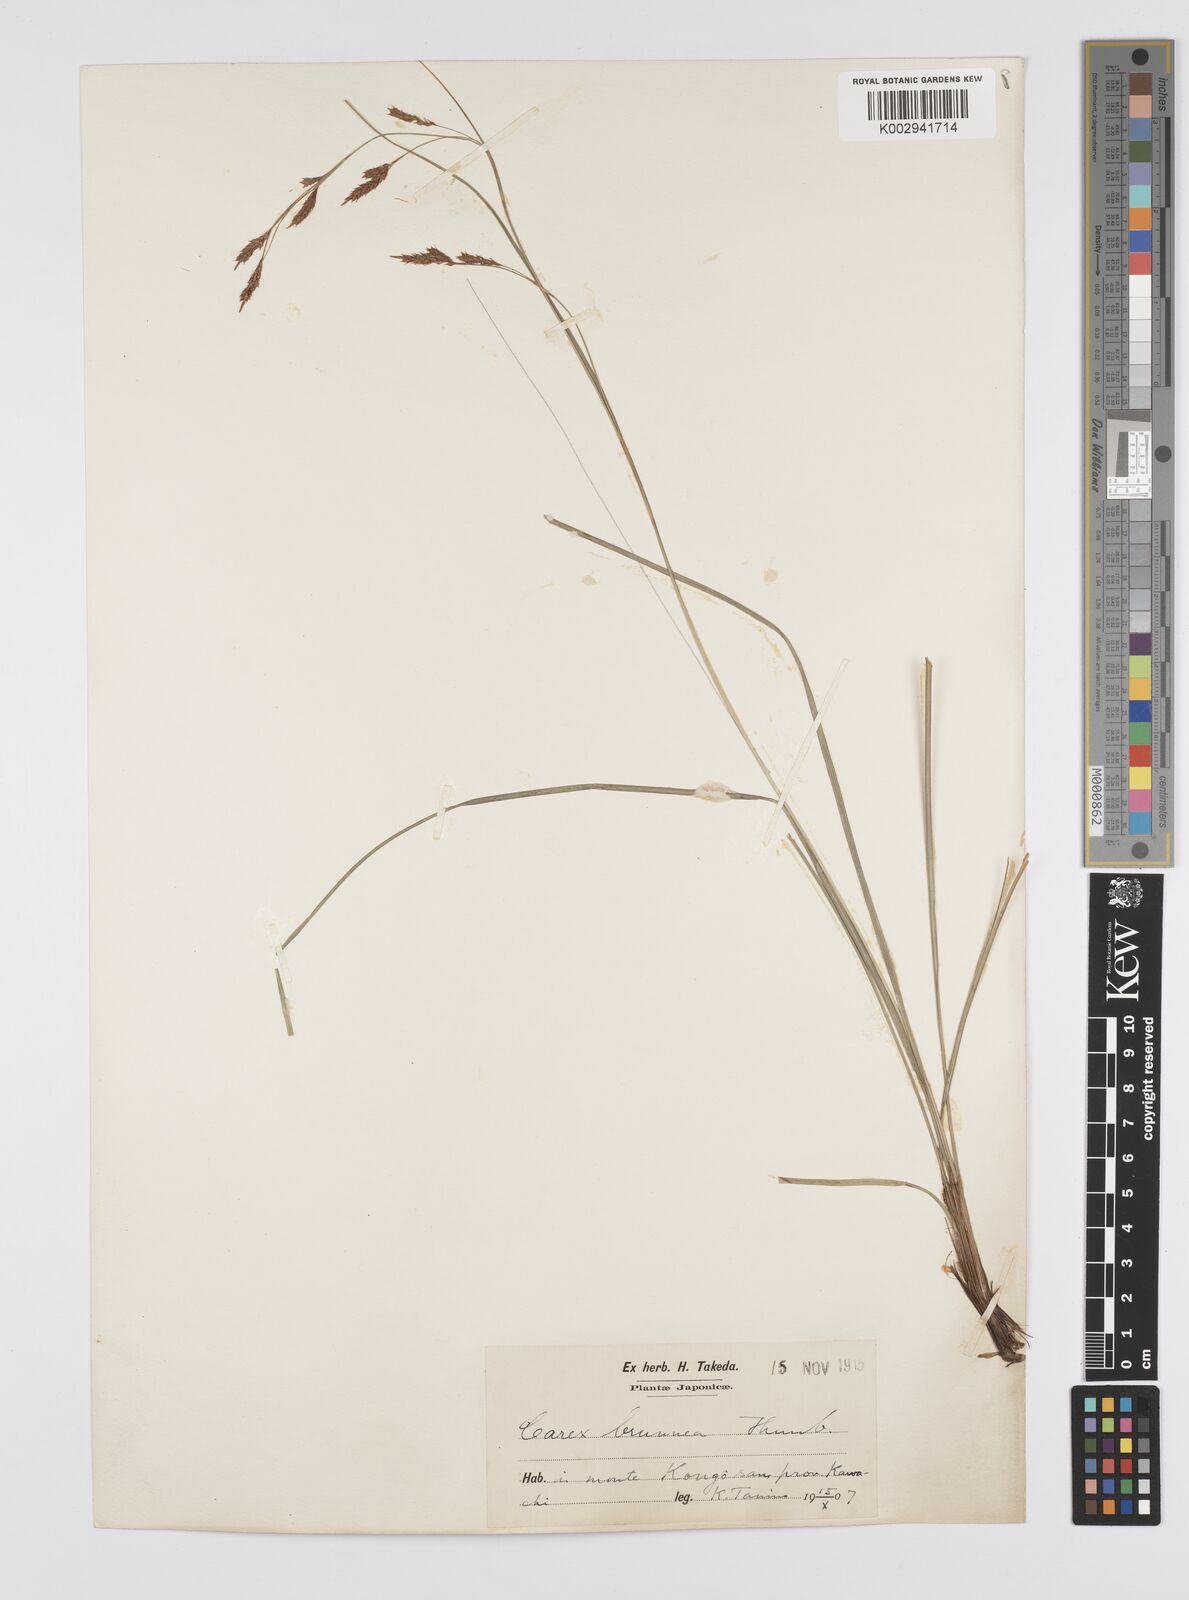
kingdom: Plantae
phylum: Tracheophyta
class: Liliopsida
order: Poales
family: Cyperaceae
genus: Carex
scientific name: Carex brunnea
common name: Greater brown sedge
